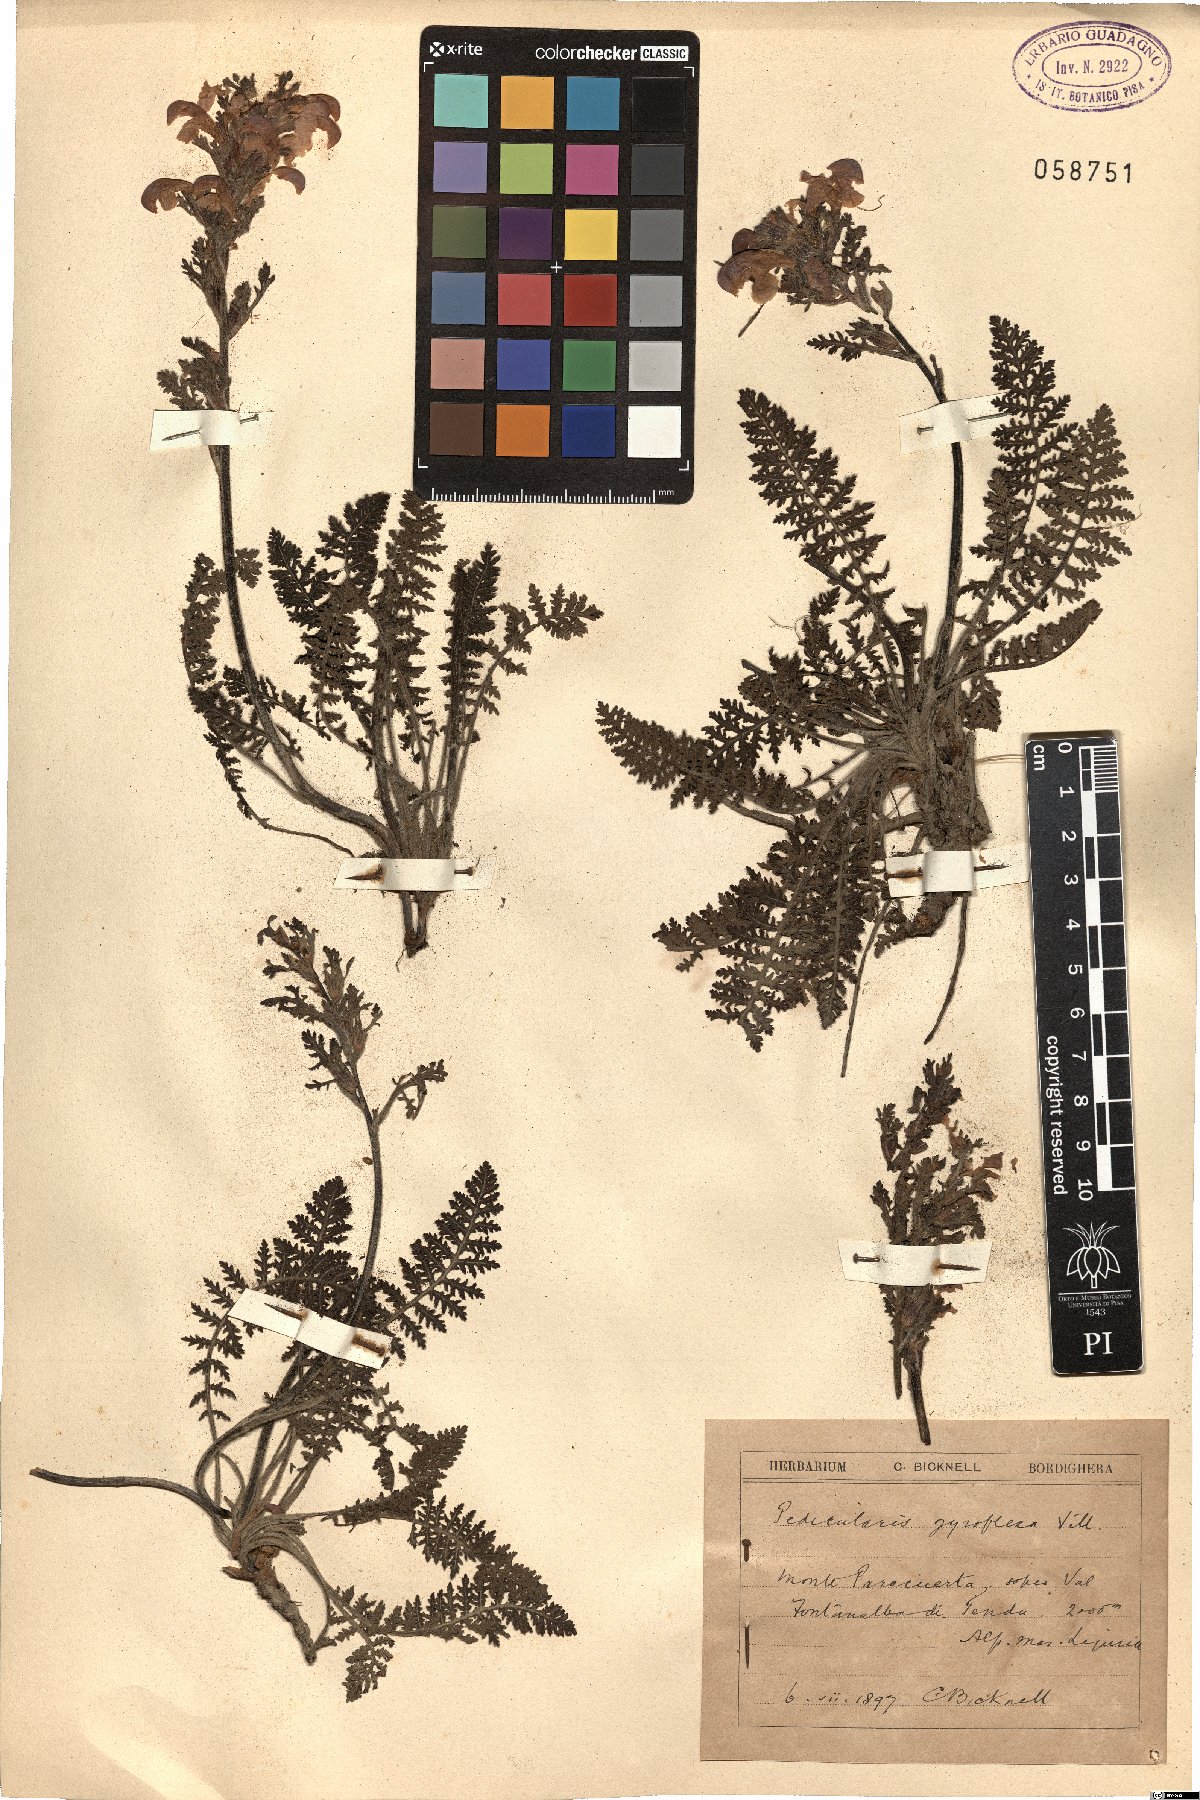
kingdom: Plantae
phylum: Tracheophyta
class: Magnoliopsida
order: Lamiales
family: Orobanchaceae
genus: Pedicularis
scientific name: Pedicularis gyroflexa
